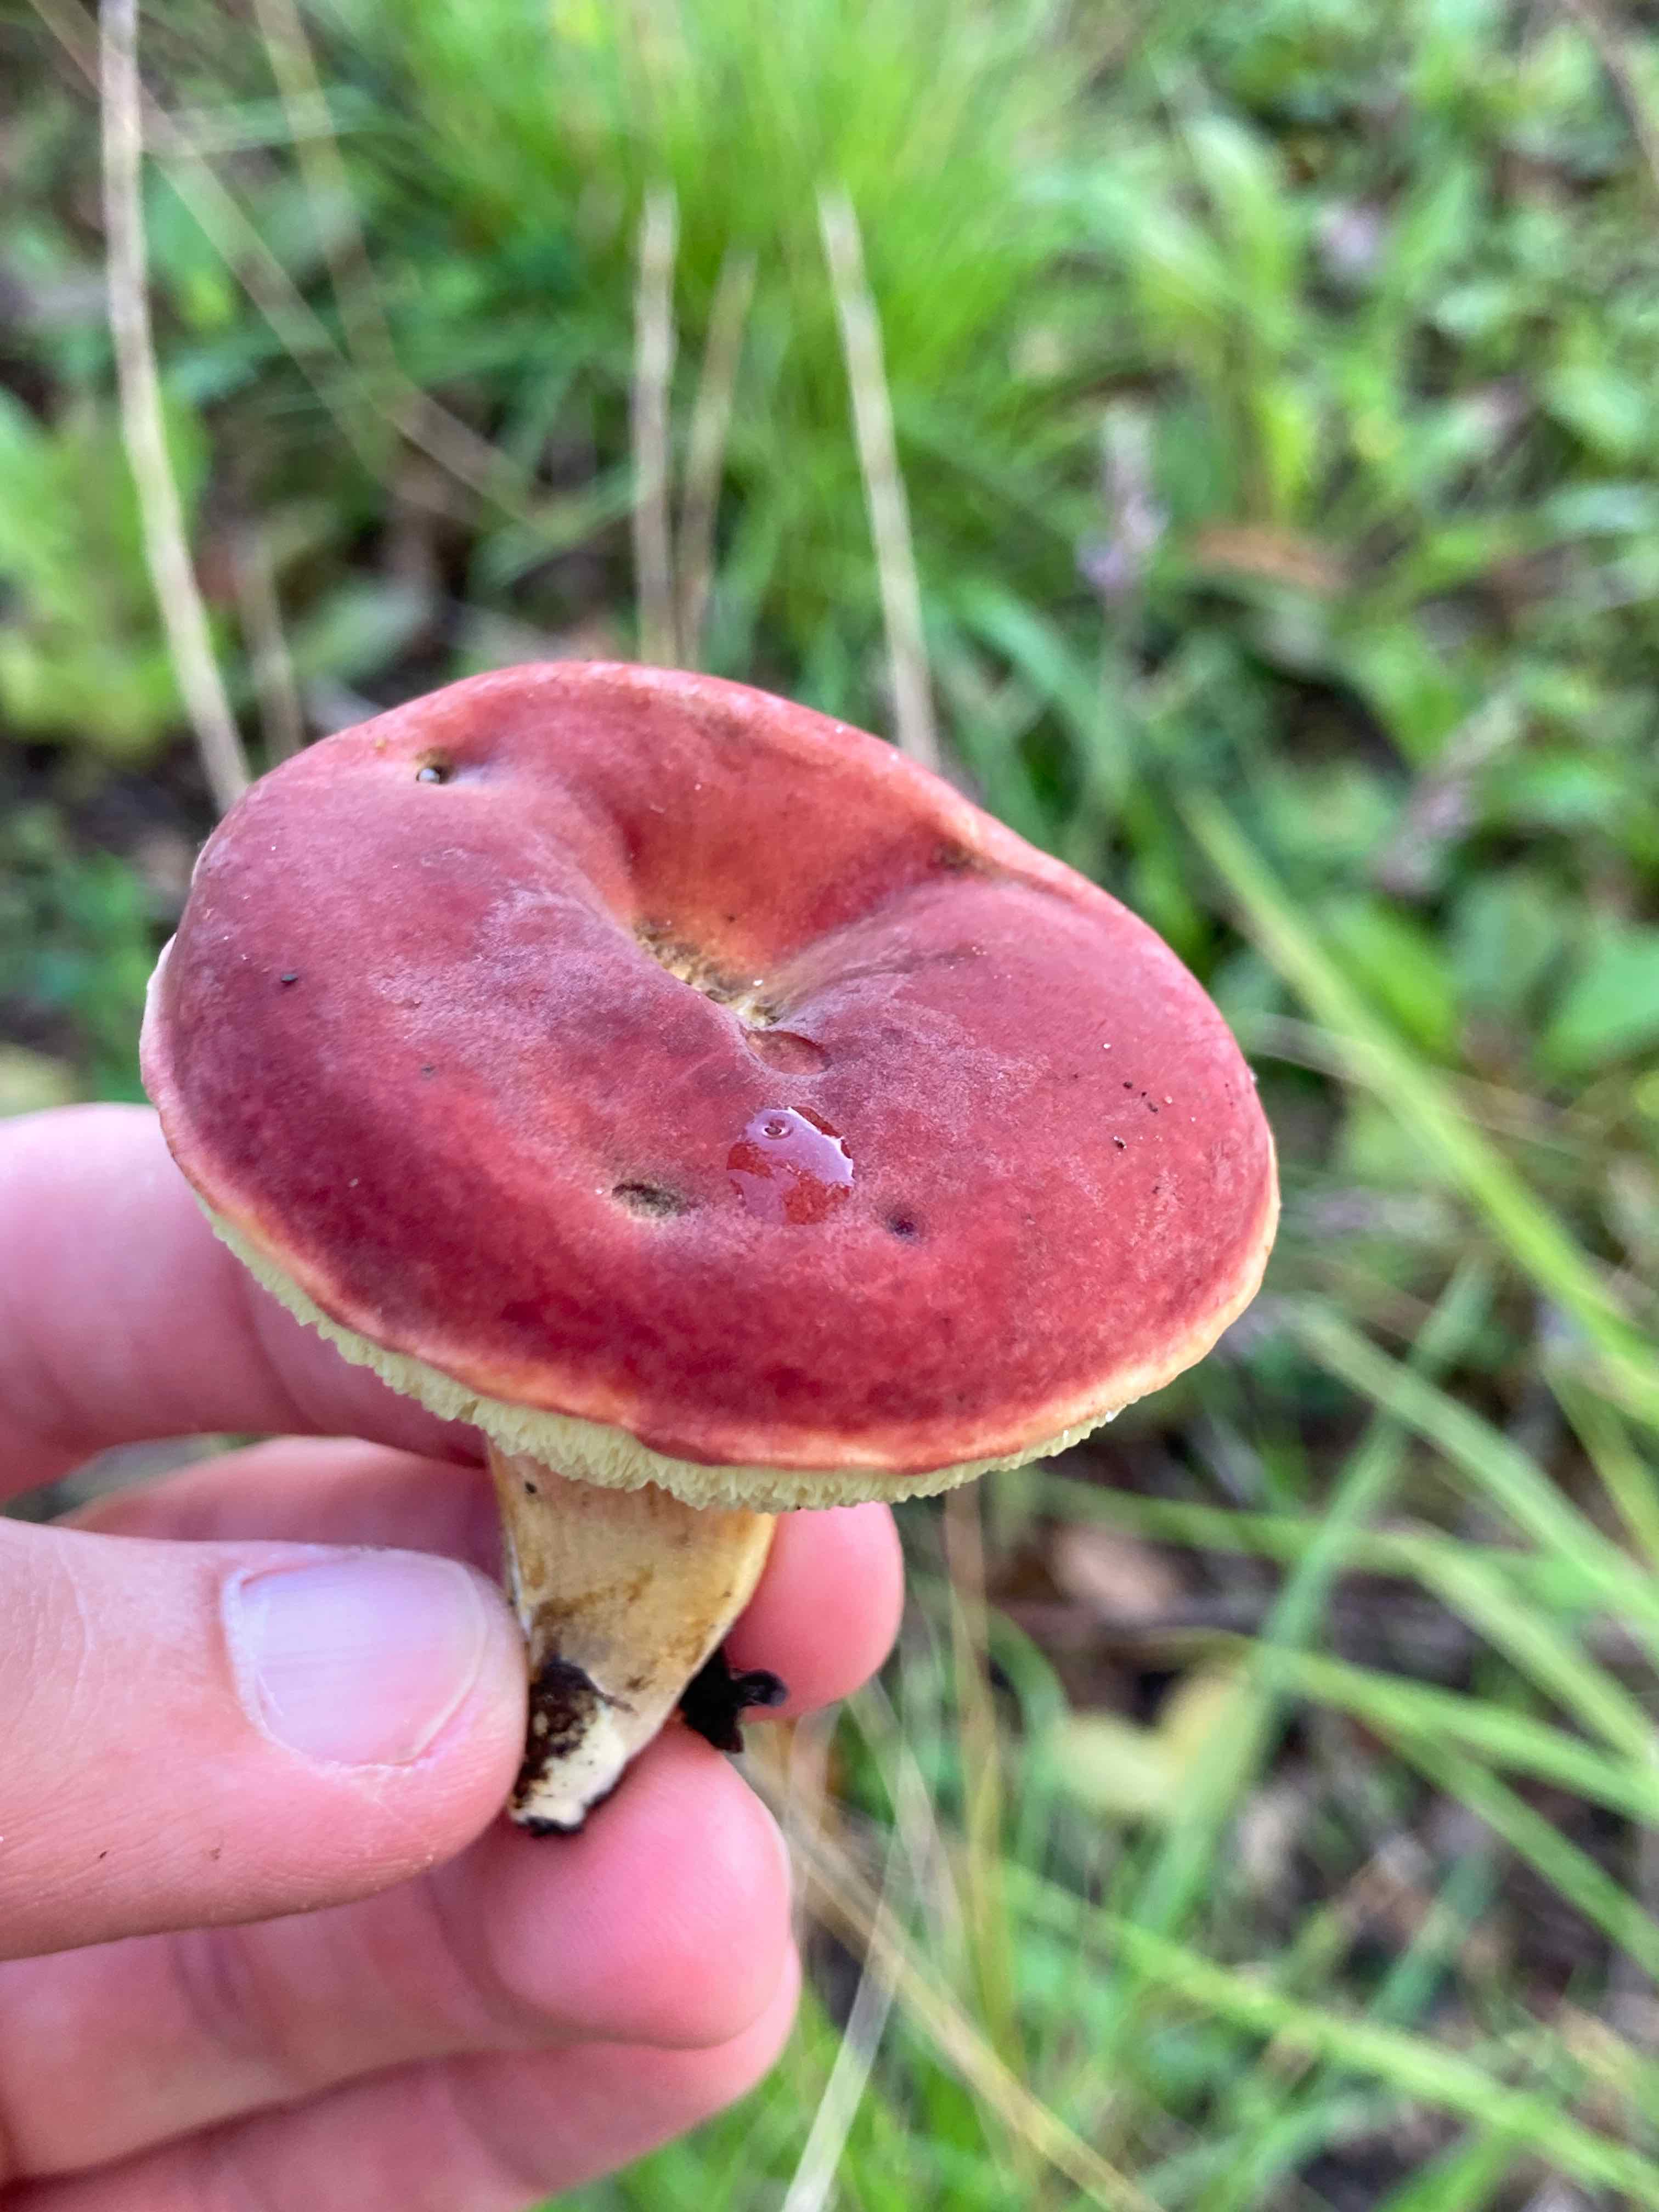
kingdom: Fungi
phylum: Basidiomycota
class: Agaricomycetes
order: Boletales
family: Boletaceae
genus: Hortiboletus
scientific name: Hortiboletus rubellus
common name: blodrød rørhat
